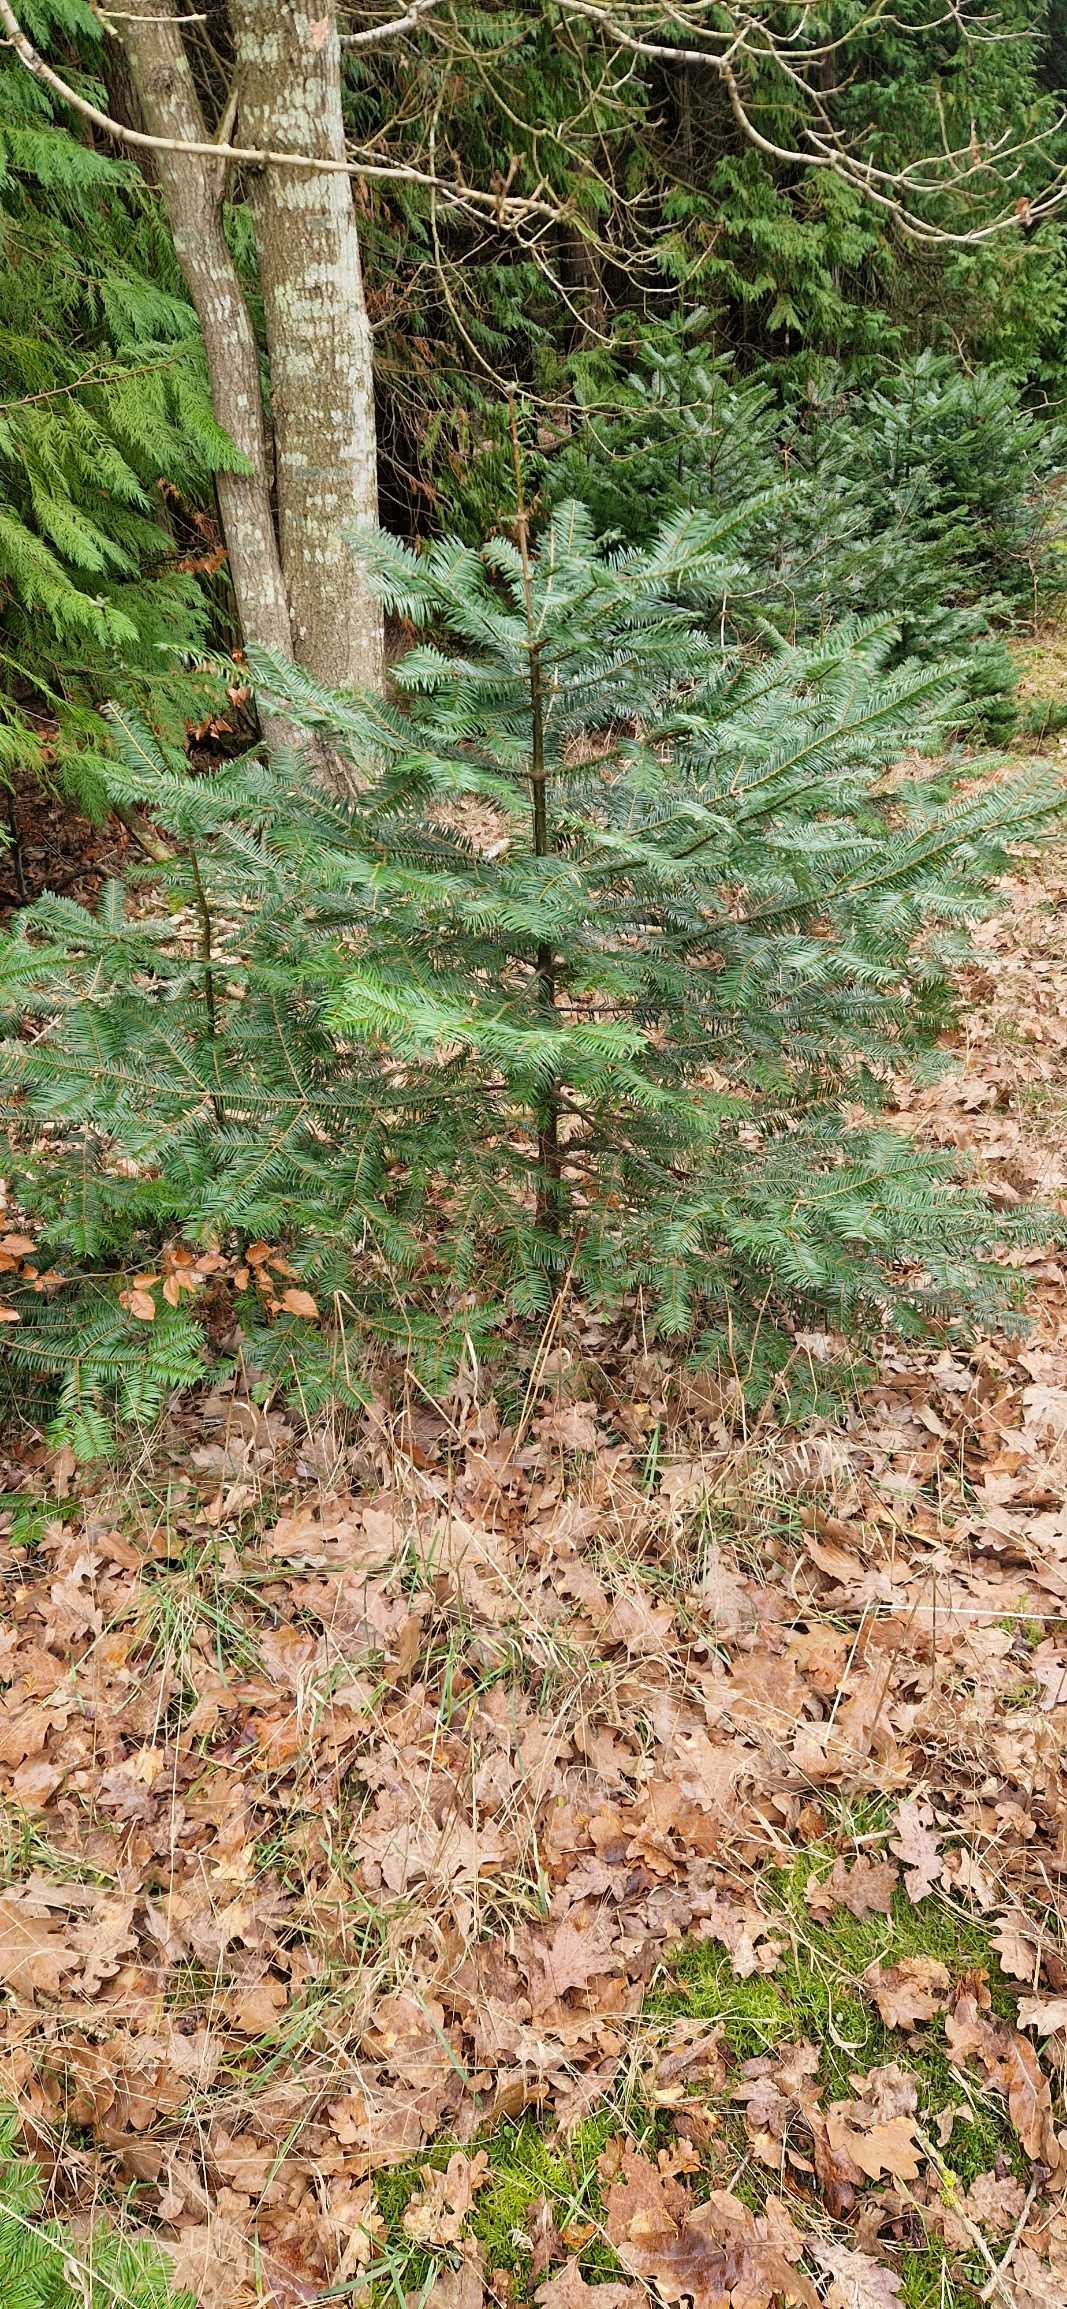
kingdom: Plantae
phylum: Tracheophyta
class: Pinopsida
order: Pinales
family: Pinaceae
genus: Abies
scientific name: Abies grandis
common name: Kæmpegran
